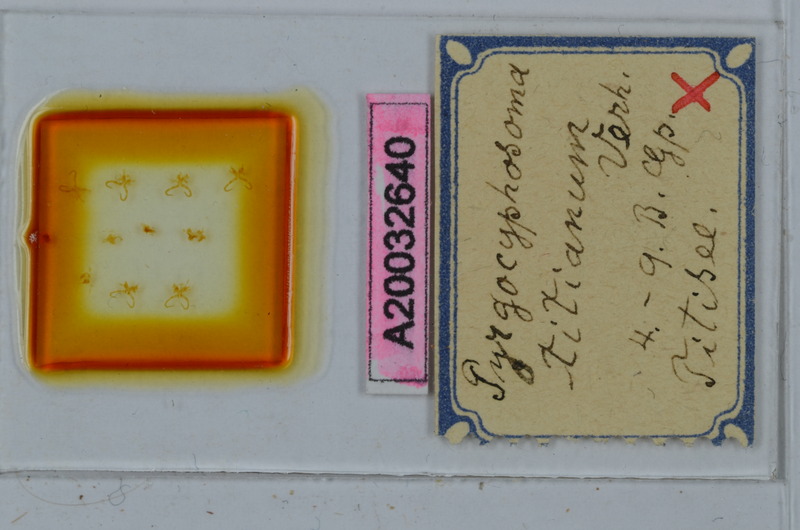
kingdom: Animalia
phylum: Arthropoda
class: Diplopoda
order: Chordeumatida
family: Craspedosomatidae
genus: Pyrgocyphosoma
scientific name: Pyrgocyphosoma titianum
